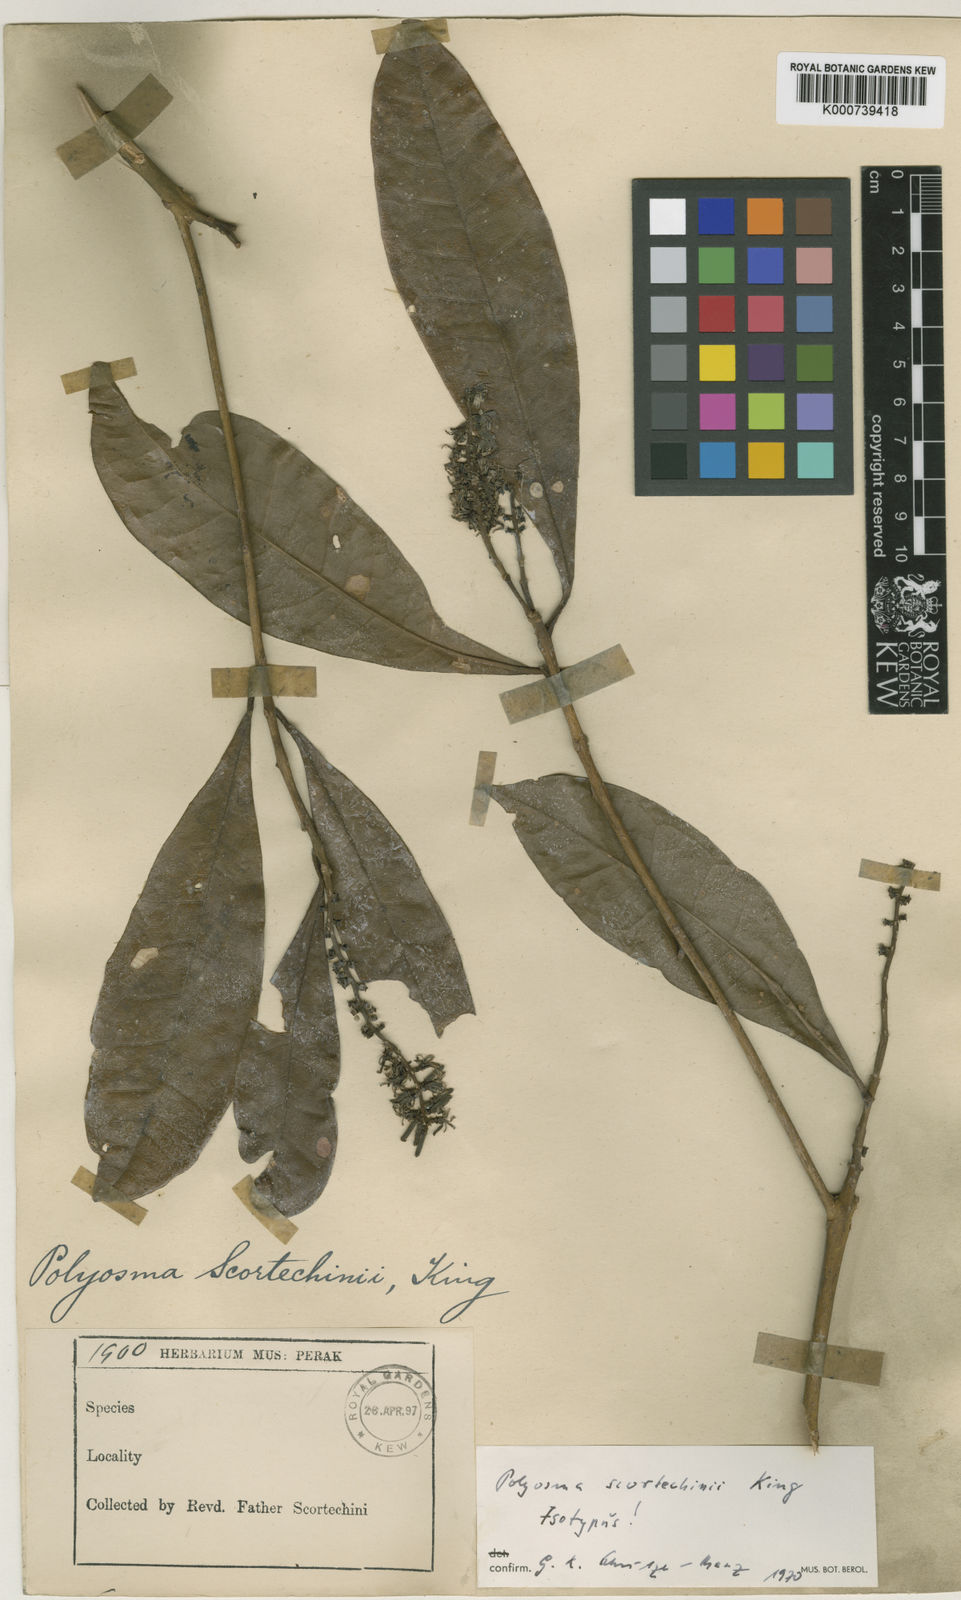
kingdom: Plantae
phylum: Tracheophyta
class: Magnoliopsida
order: Escalloniales
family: Escalloniaceae
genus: Polyosma
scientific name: Polyosma scortechinii
